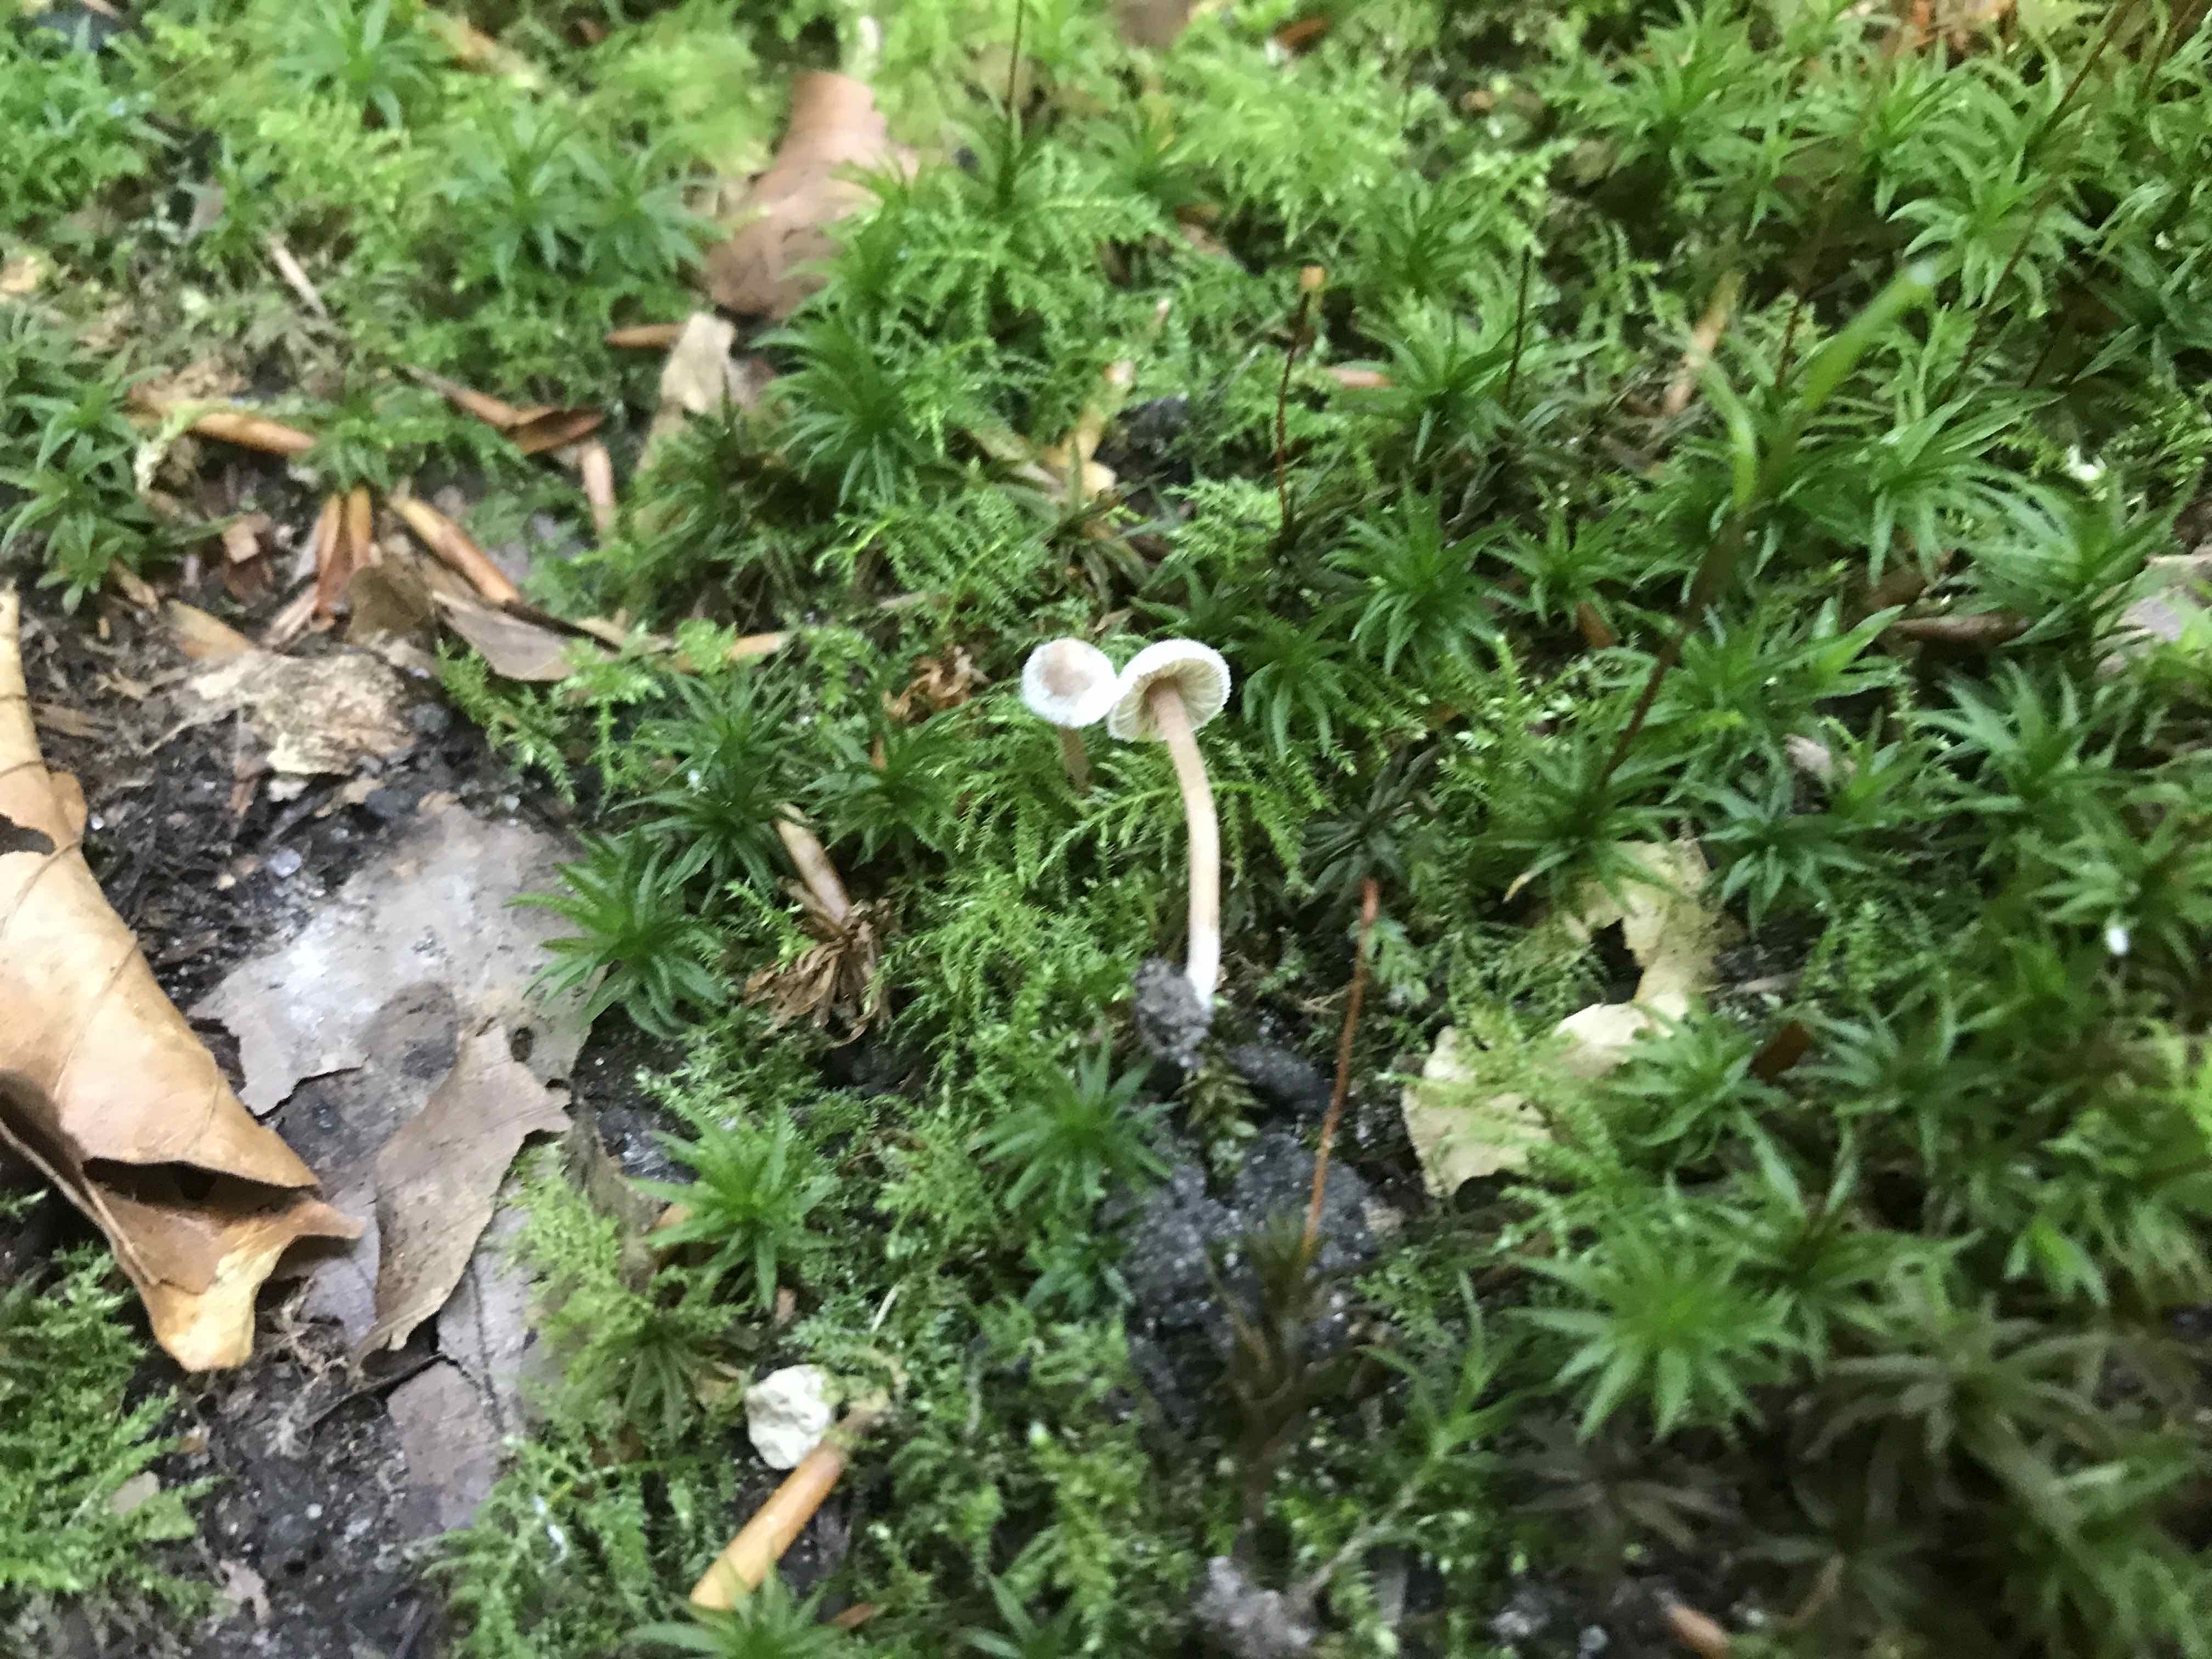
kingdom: Fungi
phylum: Basidiomycota
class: Agaricomycetes
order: Agaricales
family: Inocybaceae
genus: Inocybe
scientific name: Inocybe petiginosa
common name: liden trævlhat
